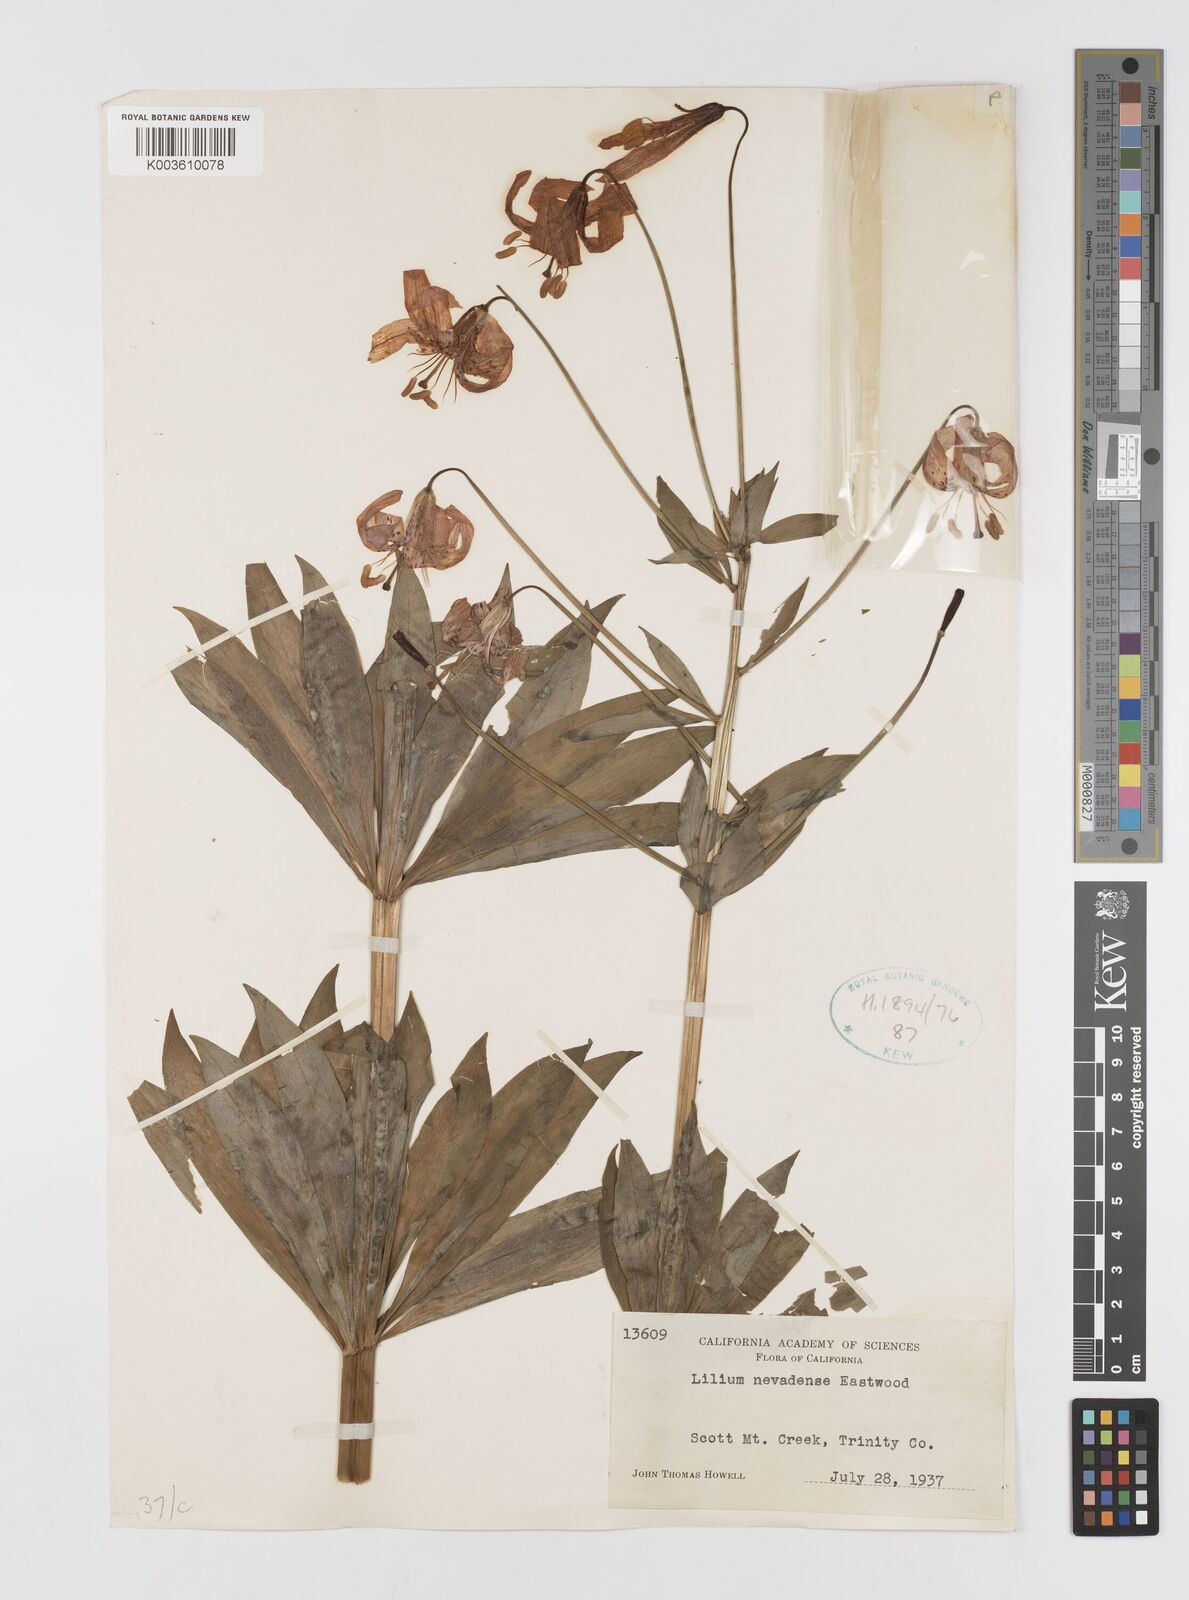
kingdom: Plantae
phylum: Tracheophyta
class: Liliopsida
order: Liliales
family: Liliaceae
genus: Lilium
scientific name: Lilium kelleyanum
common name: Kelley's lily
